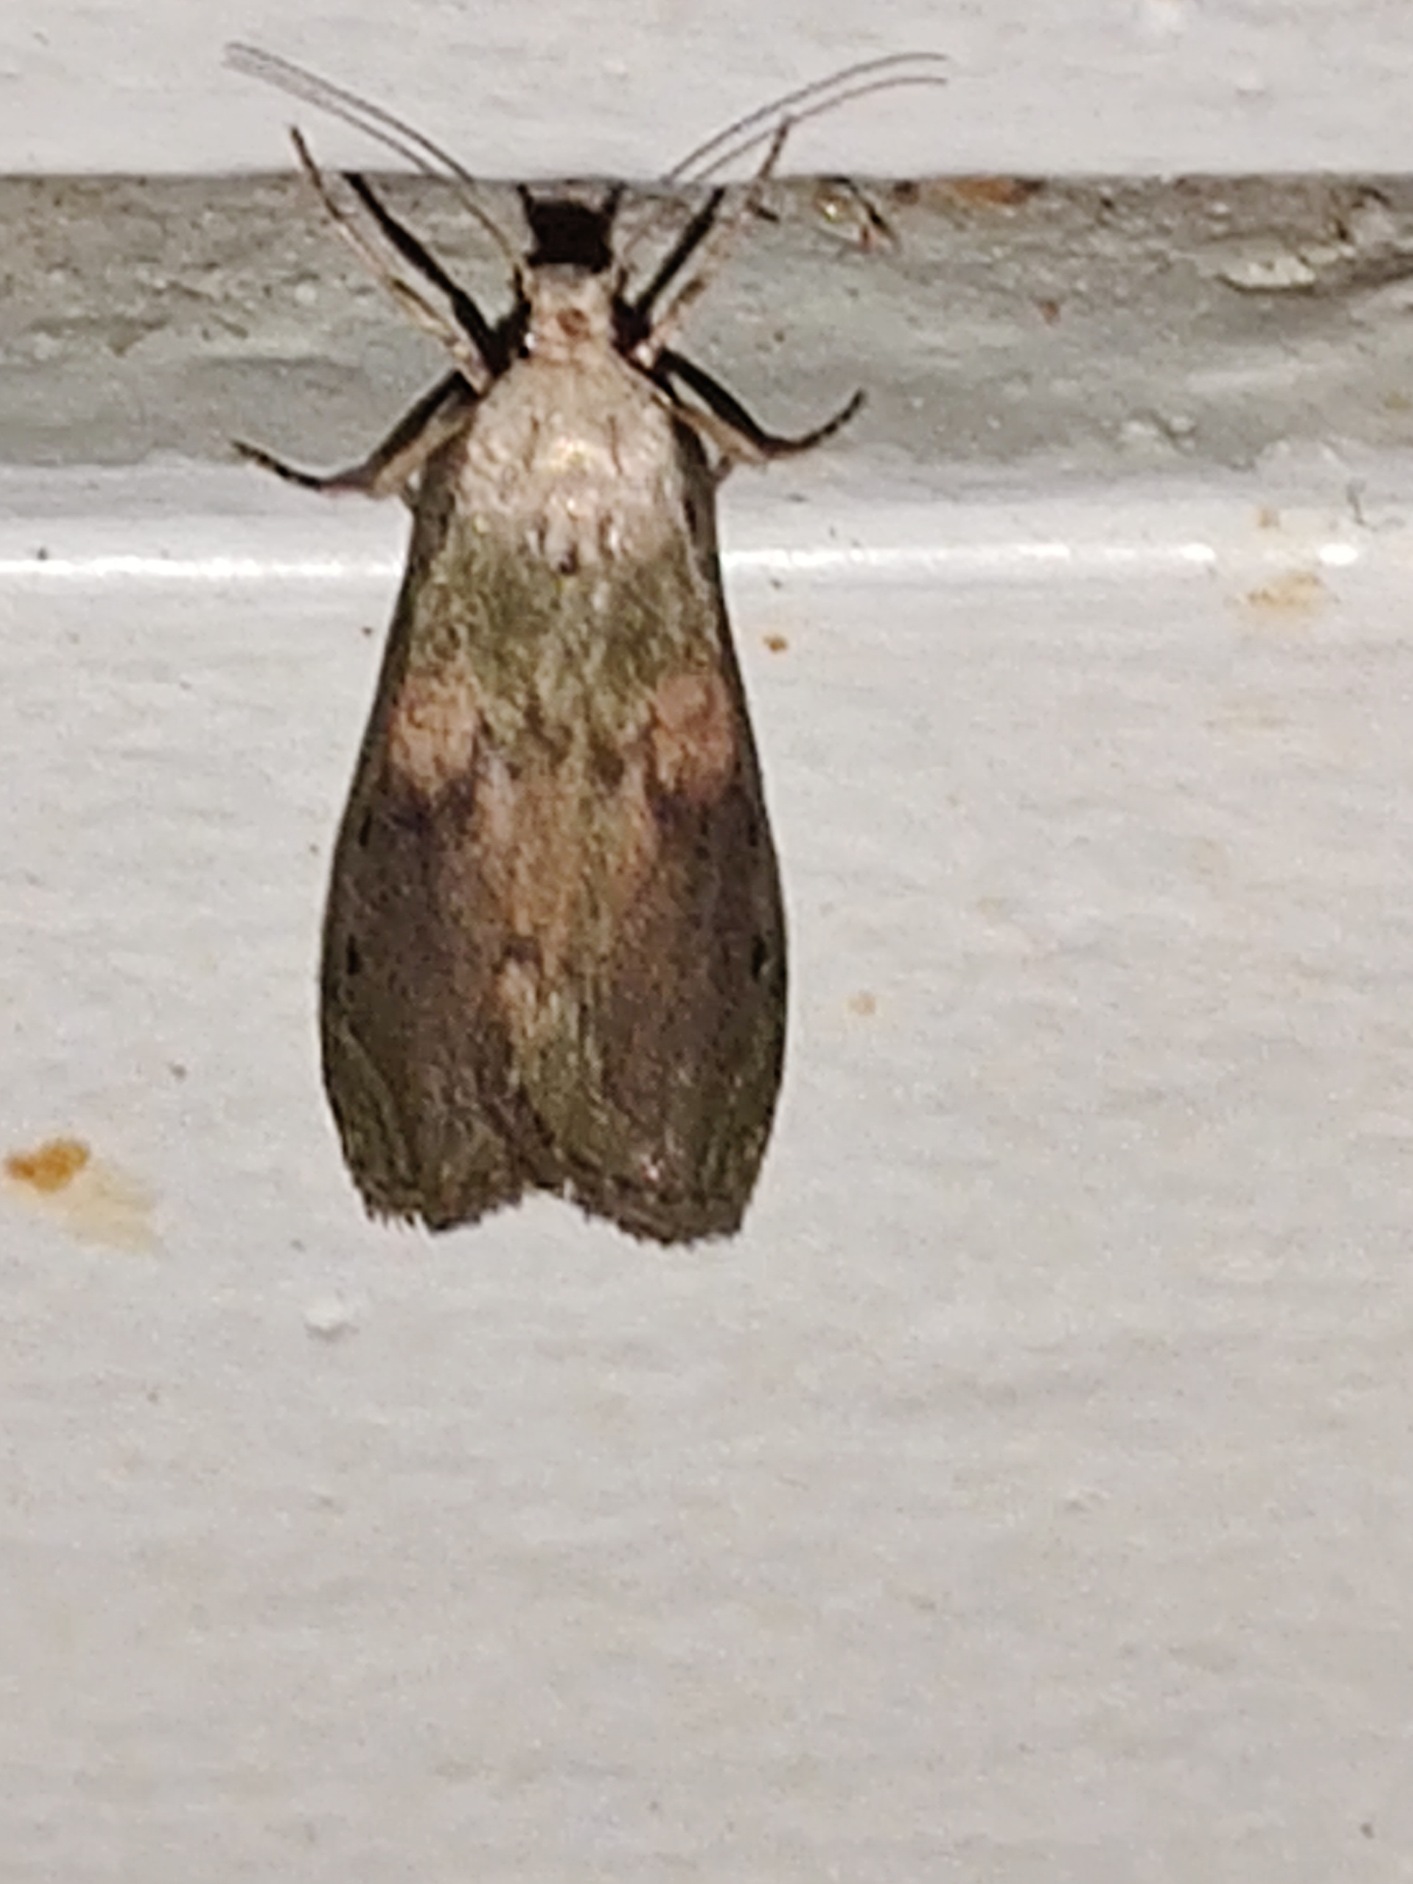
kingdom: Animalia
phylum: Arthropoda
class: Insecta
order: Lepidoptera
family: Pyralidae
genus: Aphomia
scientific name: Aphomia sociella
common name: Humlevoksmøl
